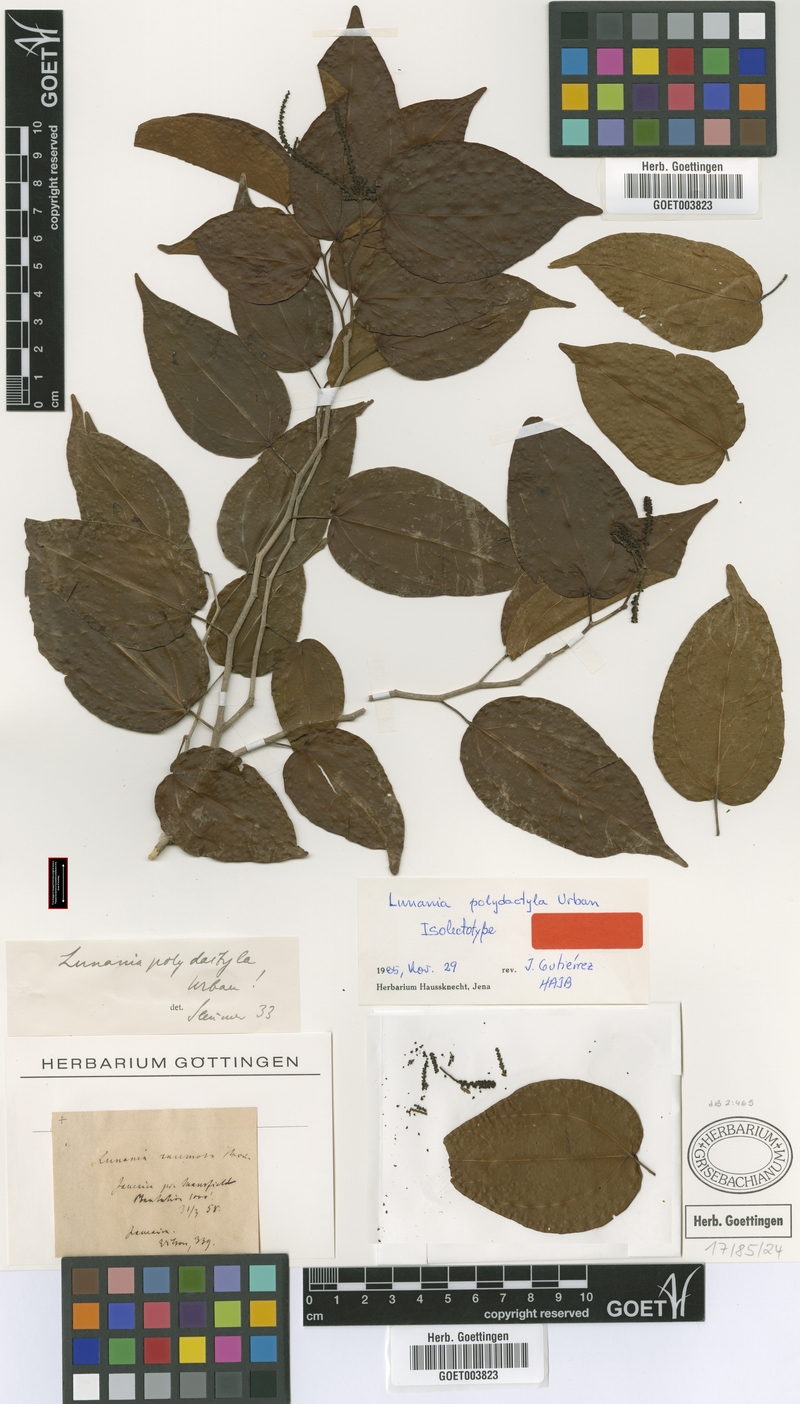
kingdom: Plantae
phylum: Tracheophyta
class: Magnoliopsida
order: Malpighiales
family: Salicaceae
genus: Lunania
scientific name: Lunania polydactyla
